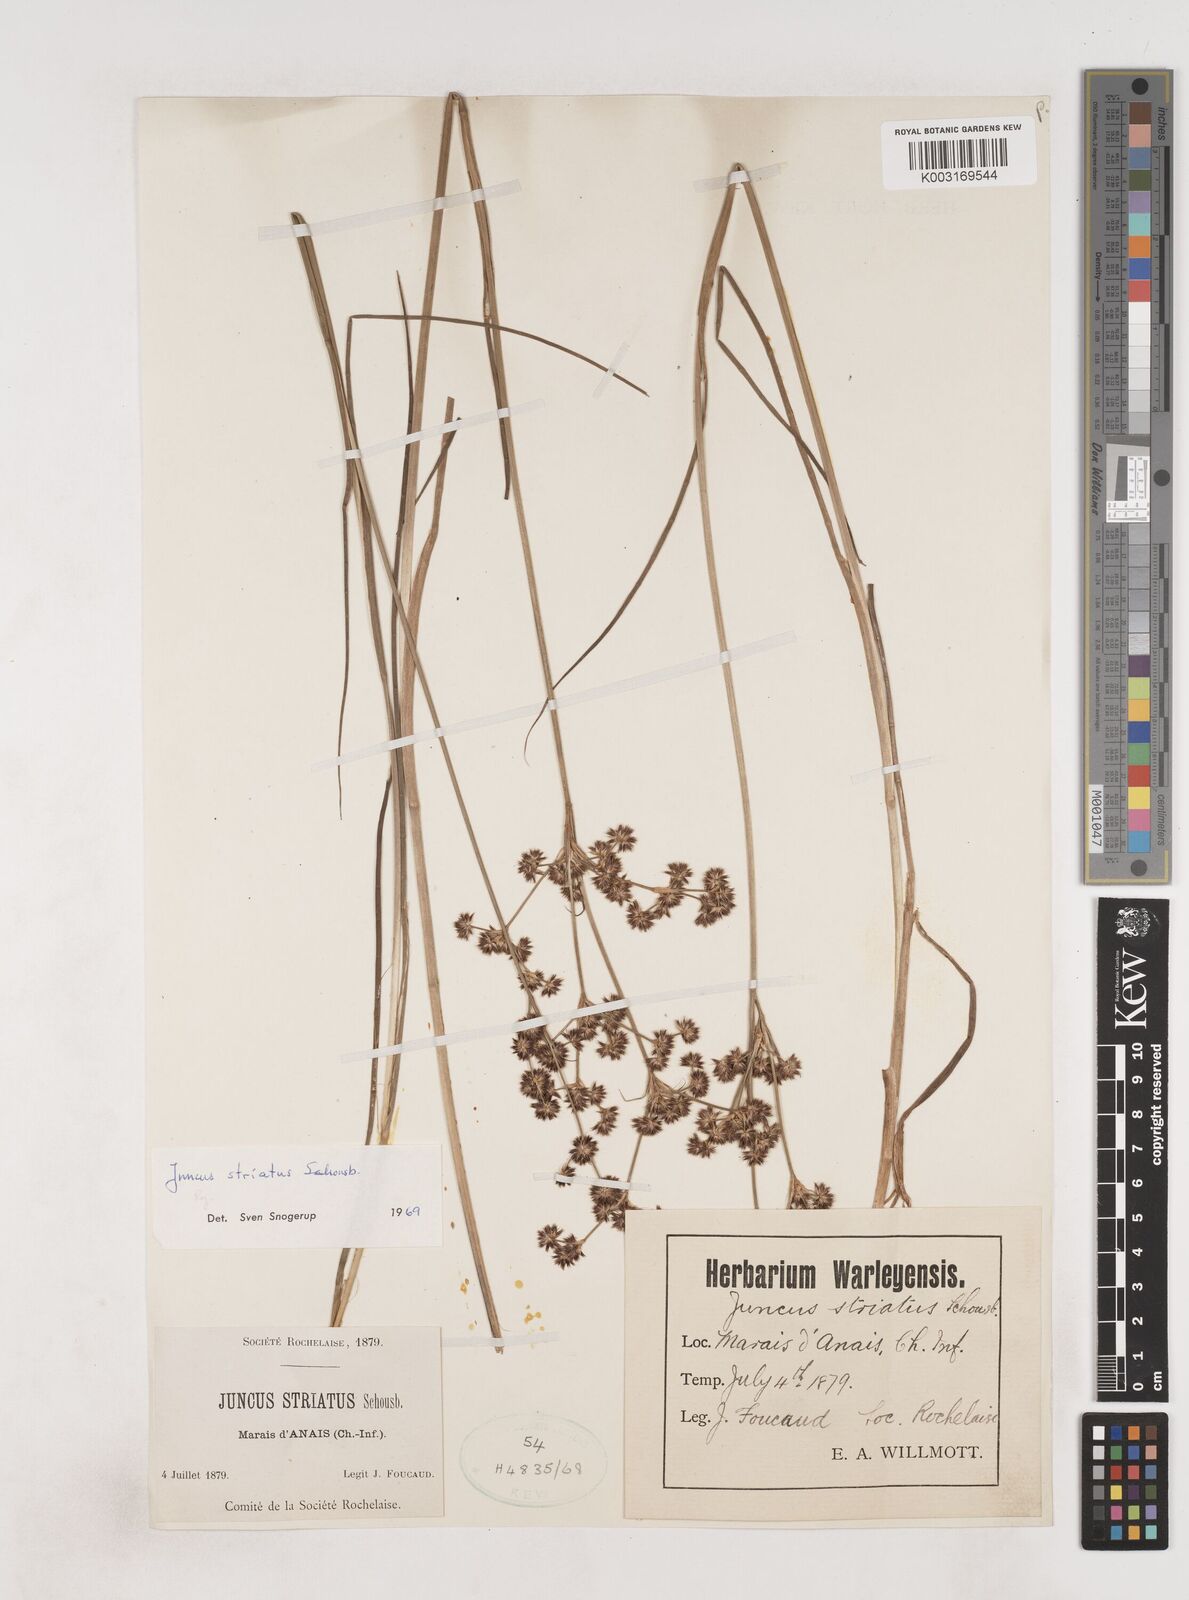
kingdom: Plantae
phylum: Tracheophyta
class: Liliopsida
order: Poales
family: Juncaceae
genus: Juncus
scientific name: Juncus striatus
